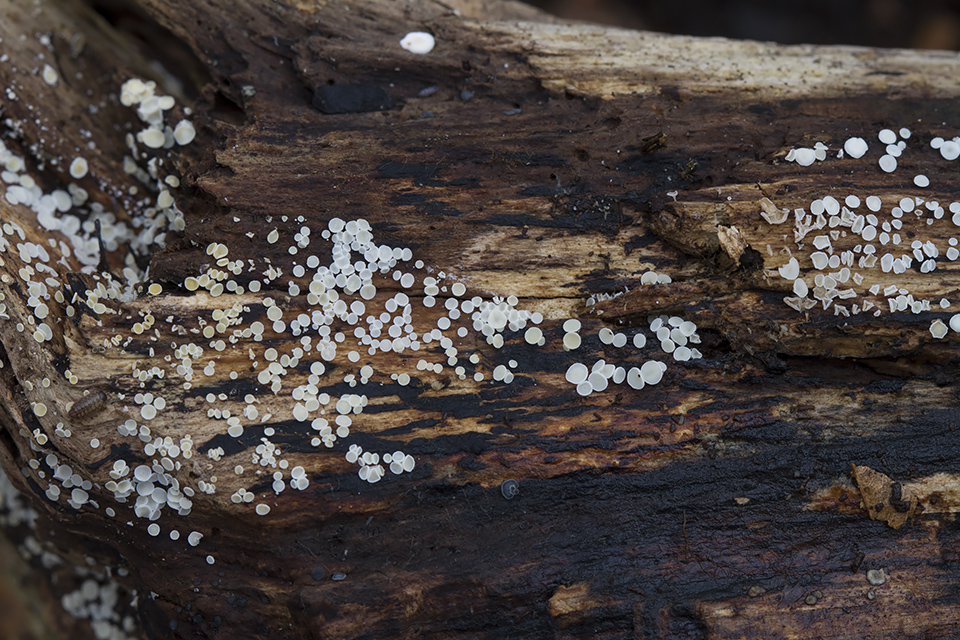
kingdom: Fungi
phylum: Ascomycota
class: Leotiomycetes
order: Helotiales
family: Lachnaceae
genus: Lachnum
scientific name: Lachnum impudicum
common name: vinter-frynseskive
